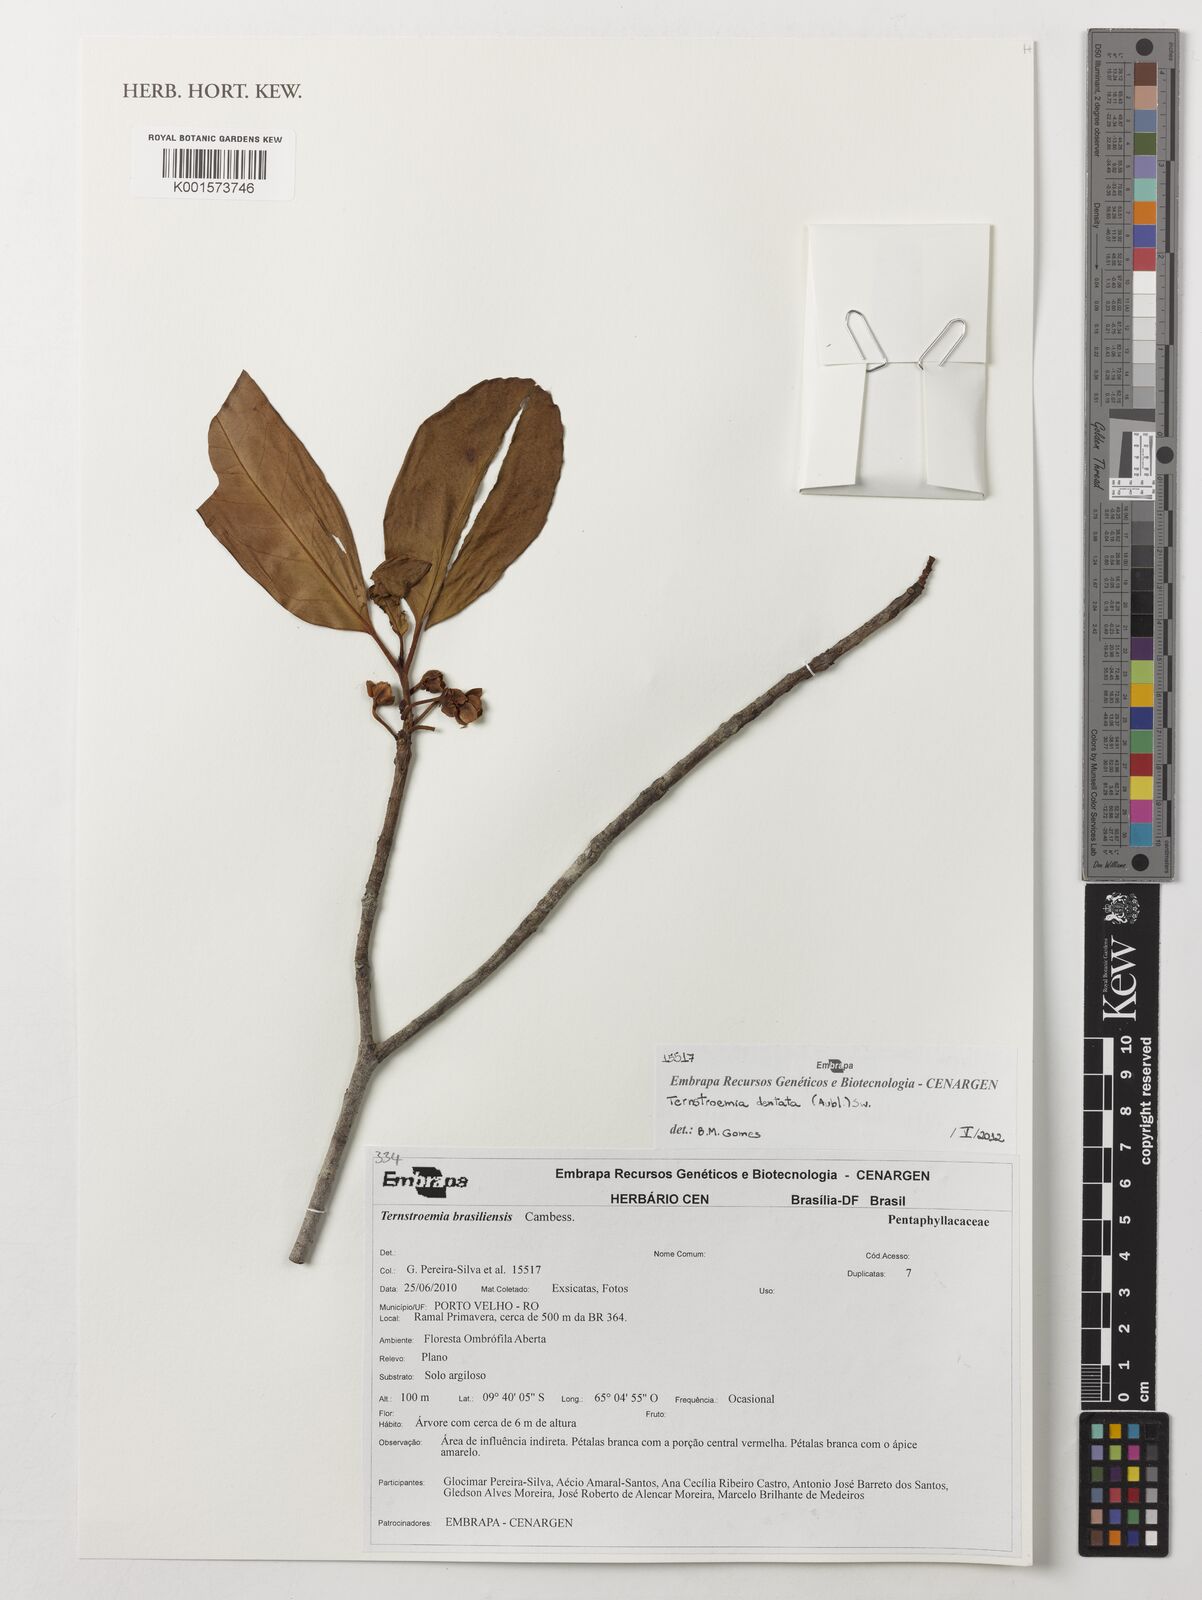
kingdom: Plantae
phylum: Tracheophyta
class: Magnoliopsida
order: Ericales
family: Pentaphylacaceae
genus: Ternstroemia
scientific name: Ternstroemia brasiliensis
